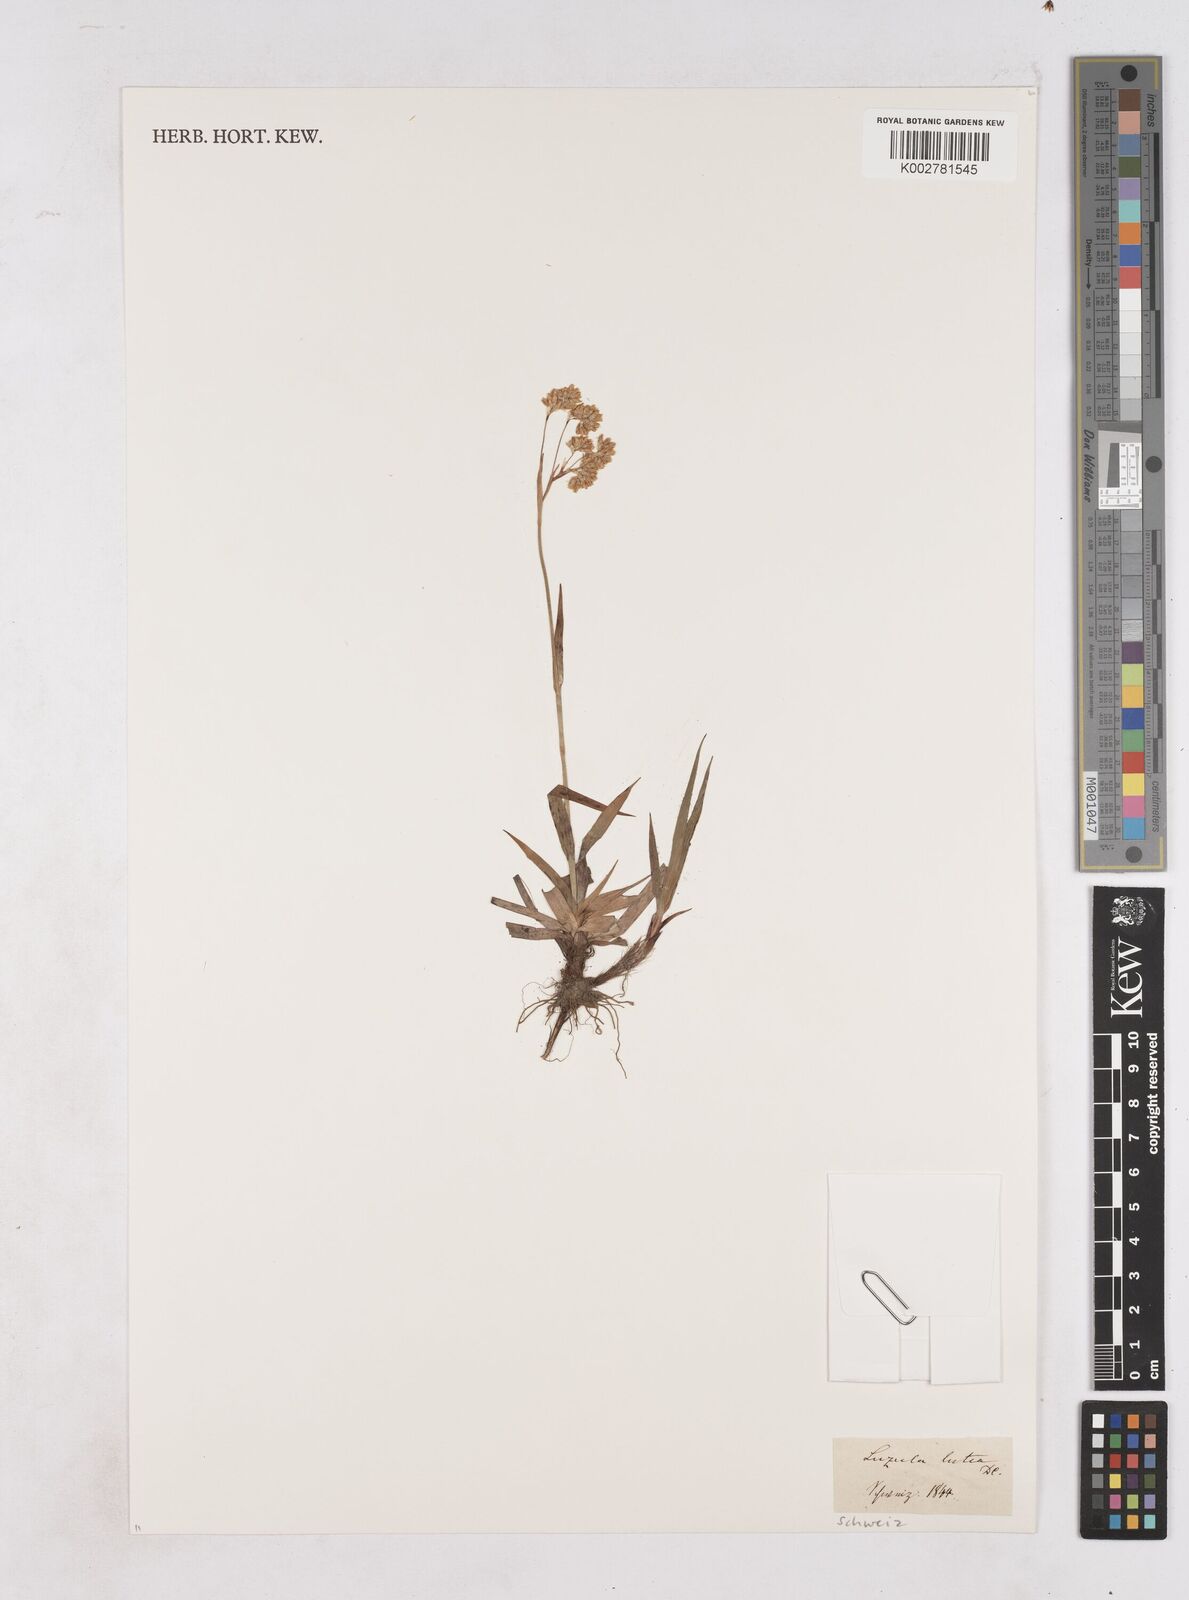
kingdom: Plantae
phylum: Tracheophyta
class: Liliopsida
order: Poales
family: Juncaceae
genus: Luzula
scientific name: Luzula lutea
